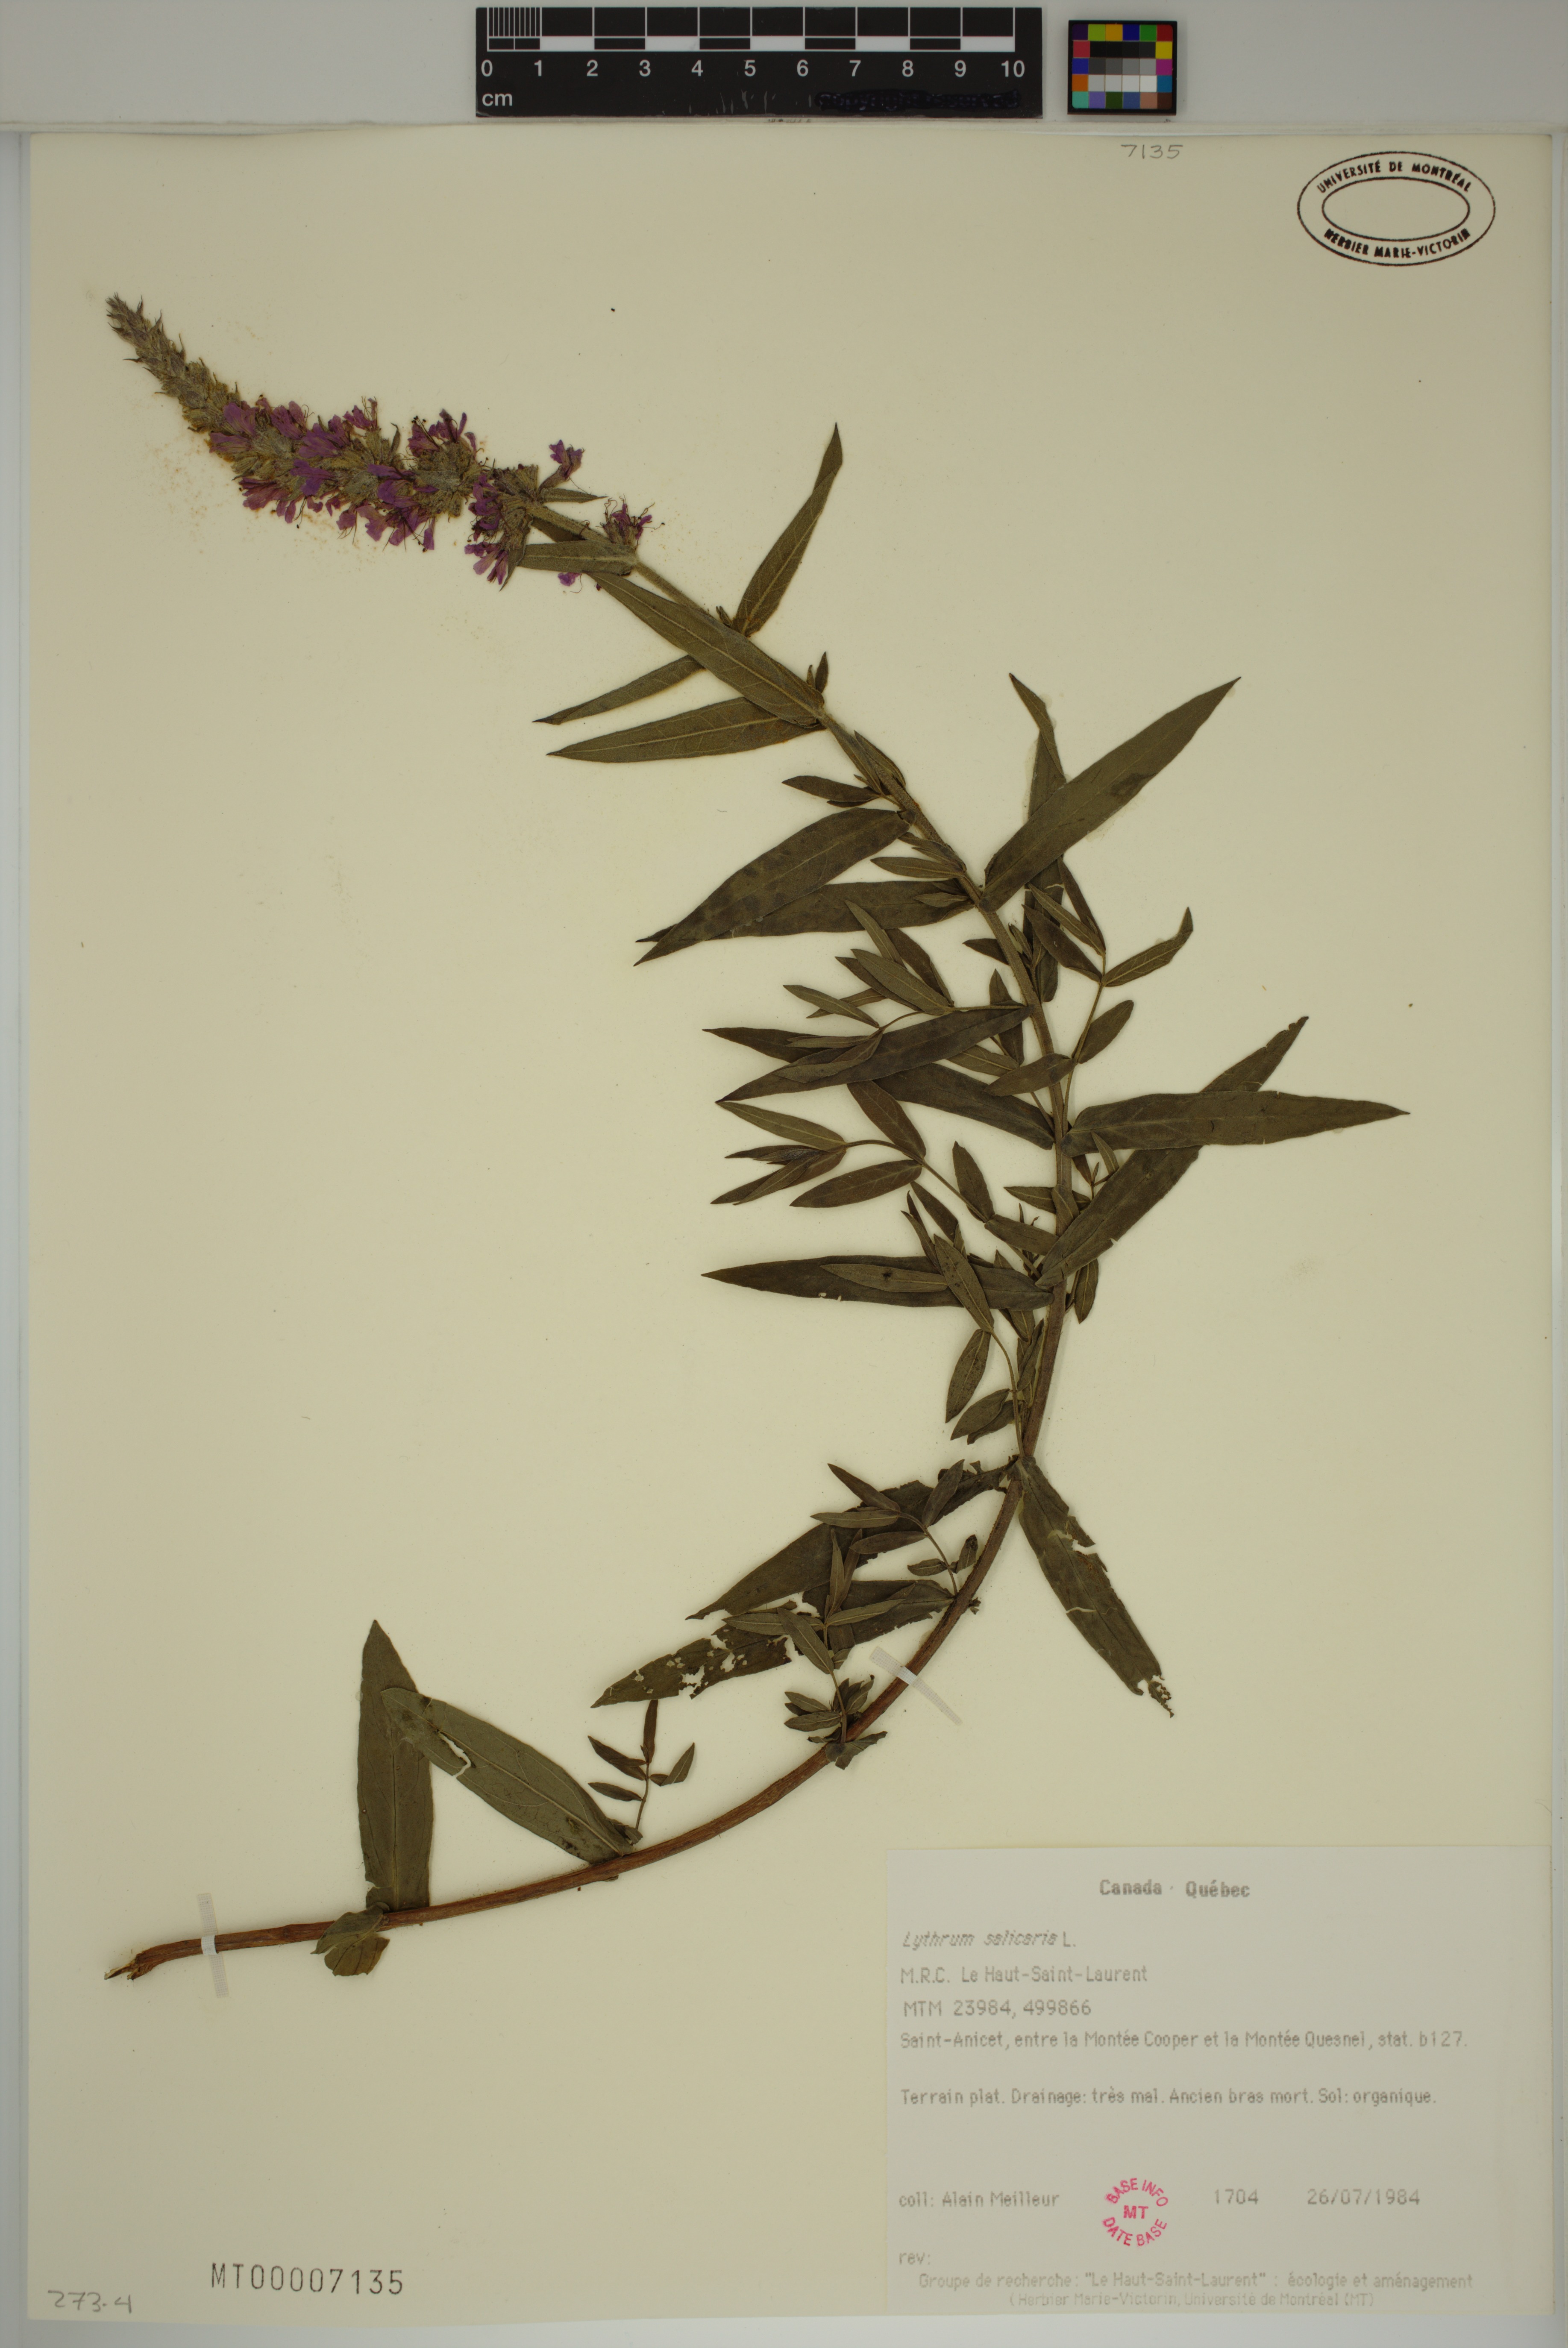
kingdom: Plantae
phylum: Tracheophyta
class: Magnoliopsida
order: Myrtales
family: Lythraceae
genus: Lythrum
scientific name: Lythrum salicaria
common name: Purple loosestrife
